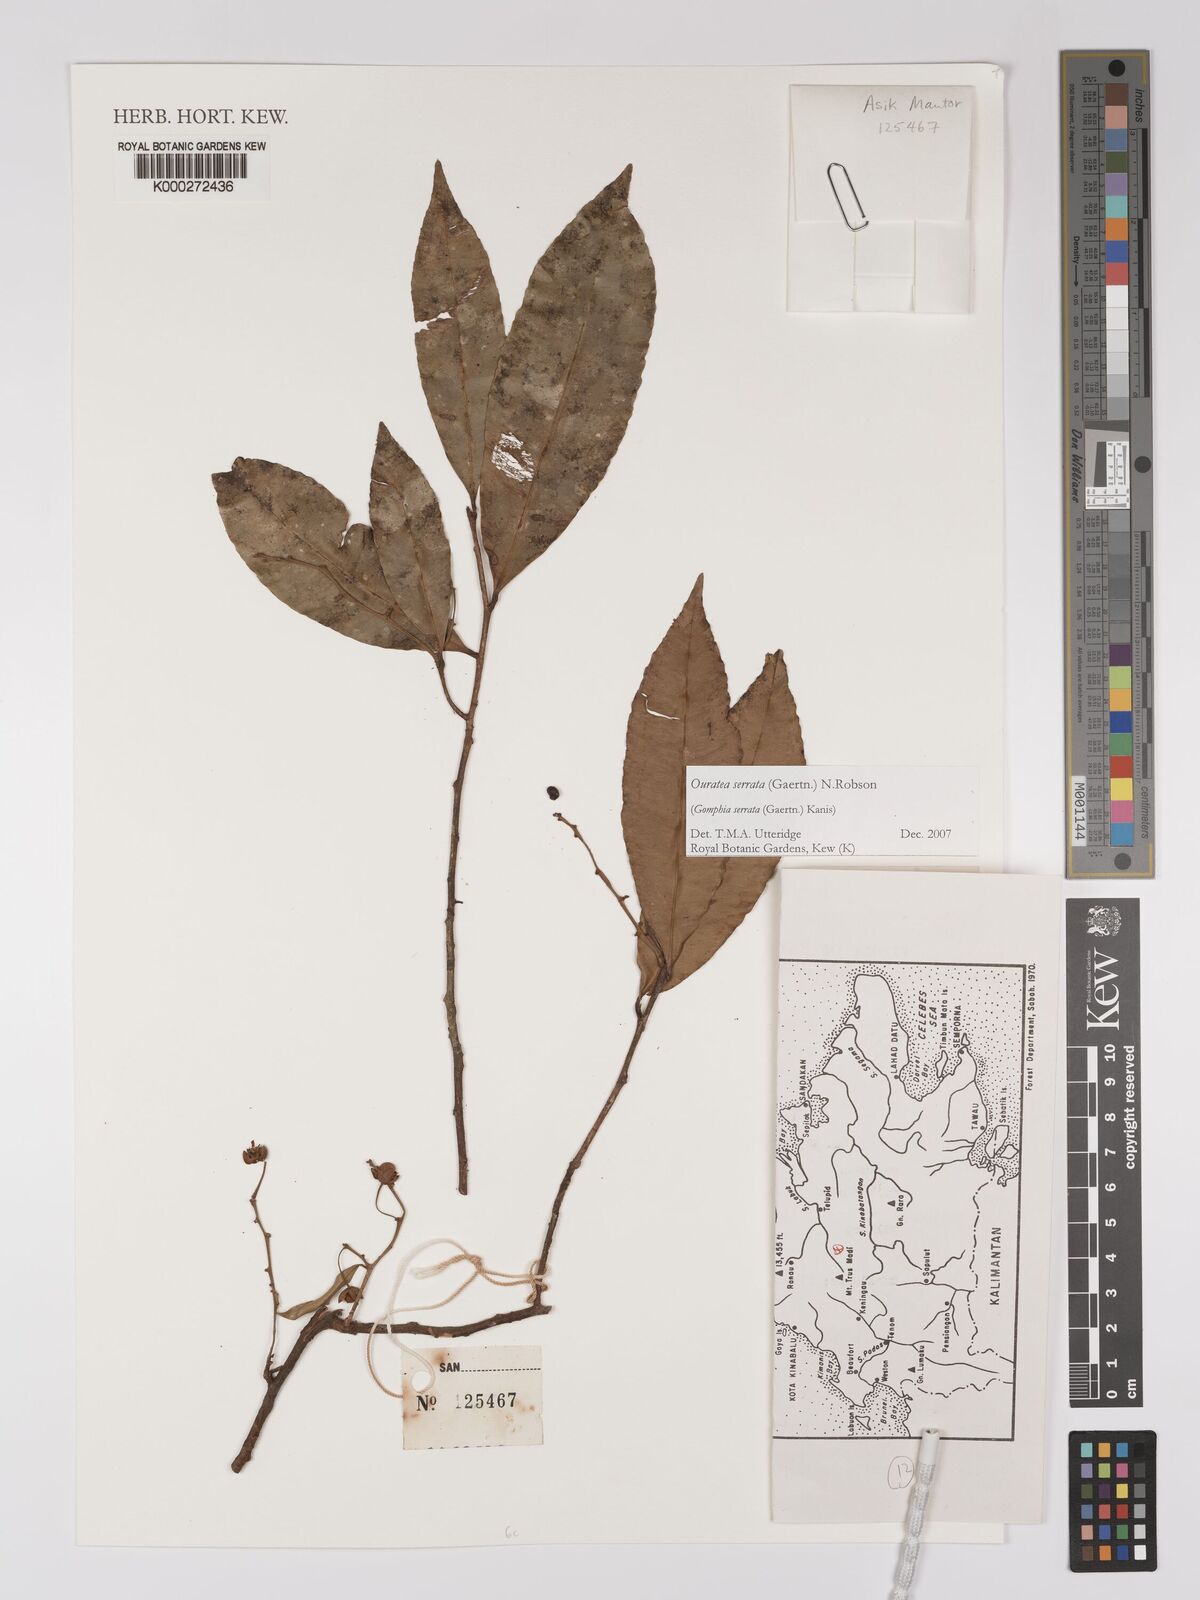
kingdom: Plantae
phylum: Tracheophyta
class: Magnoliopsida
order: Malpighiales
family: Ochnaceae
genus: Gomphia
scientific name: Gomphia serrata
